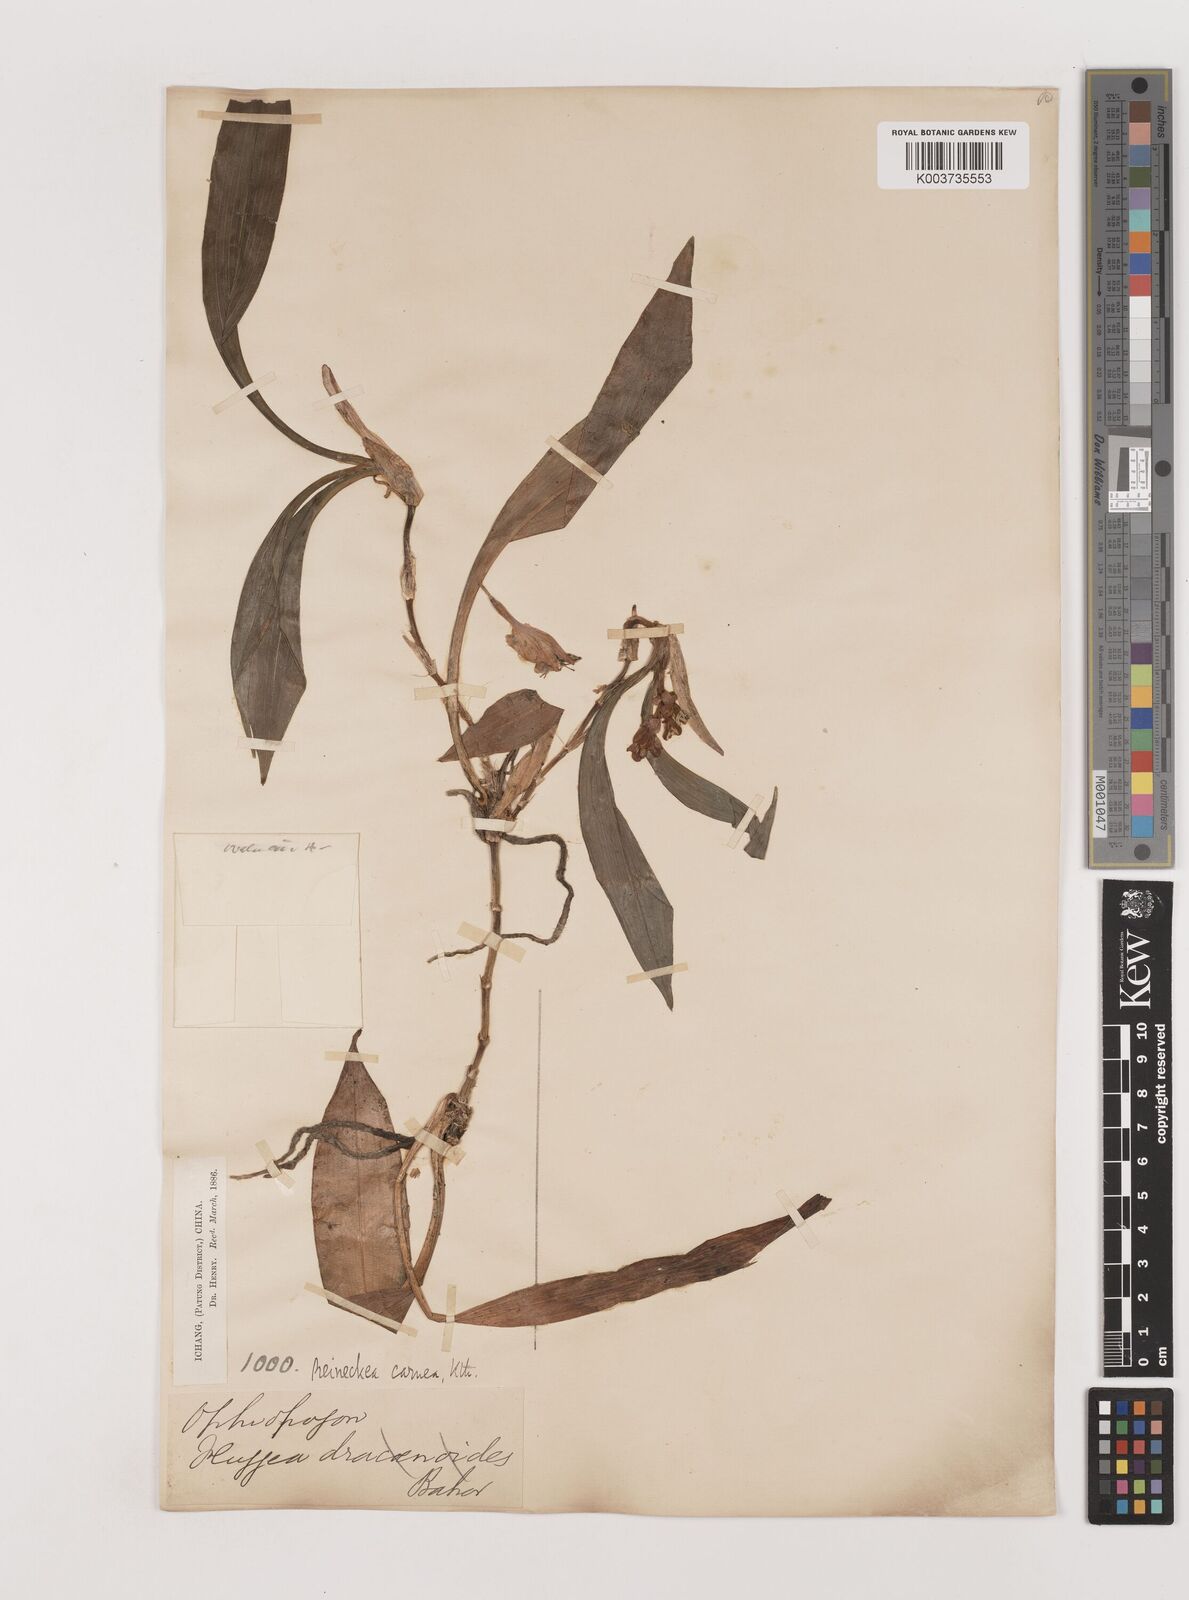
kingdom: Plantae
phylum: Tracheophyta
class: Liliopsida
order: Asparagales
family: Asparagaceae
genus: Reineckea
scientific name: Reineckea carnea
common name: Reineckea
